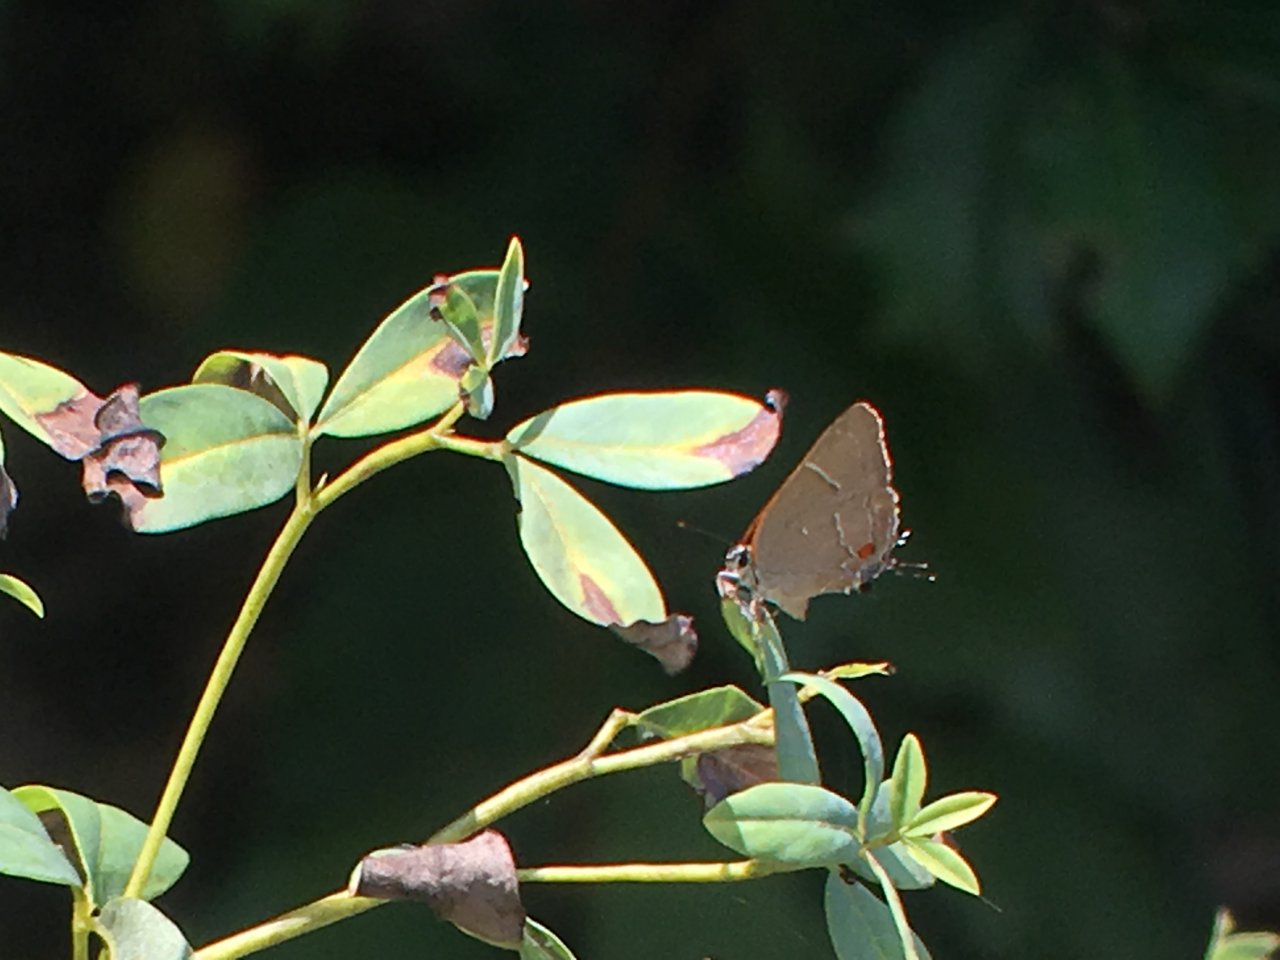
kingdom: Animalia
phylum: Arthropoda
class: Insecta
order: Lepidoptera
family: Lycaenidae
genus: Parrhasius
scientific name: Parrhasius m-album
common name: White-m Hairstreak
